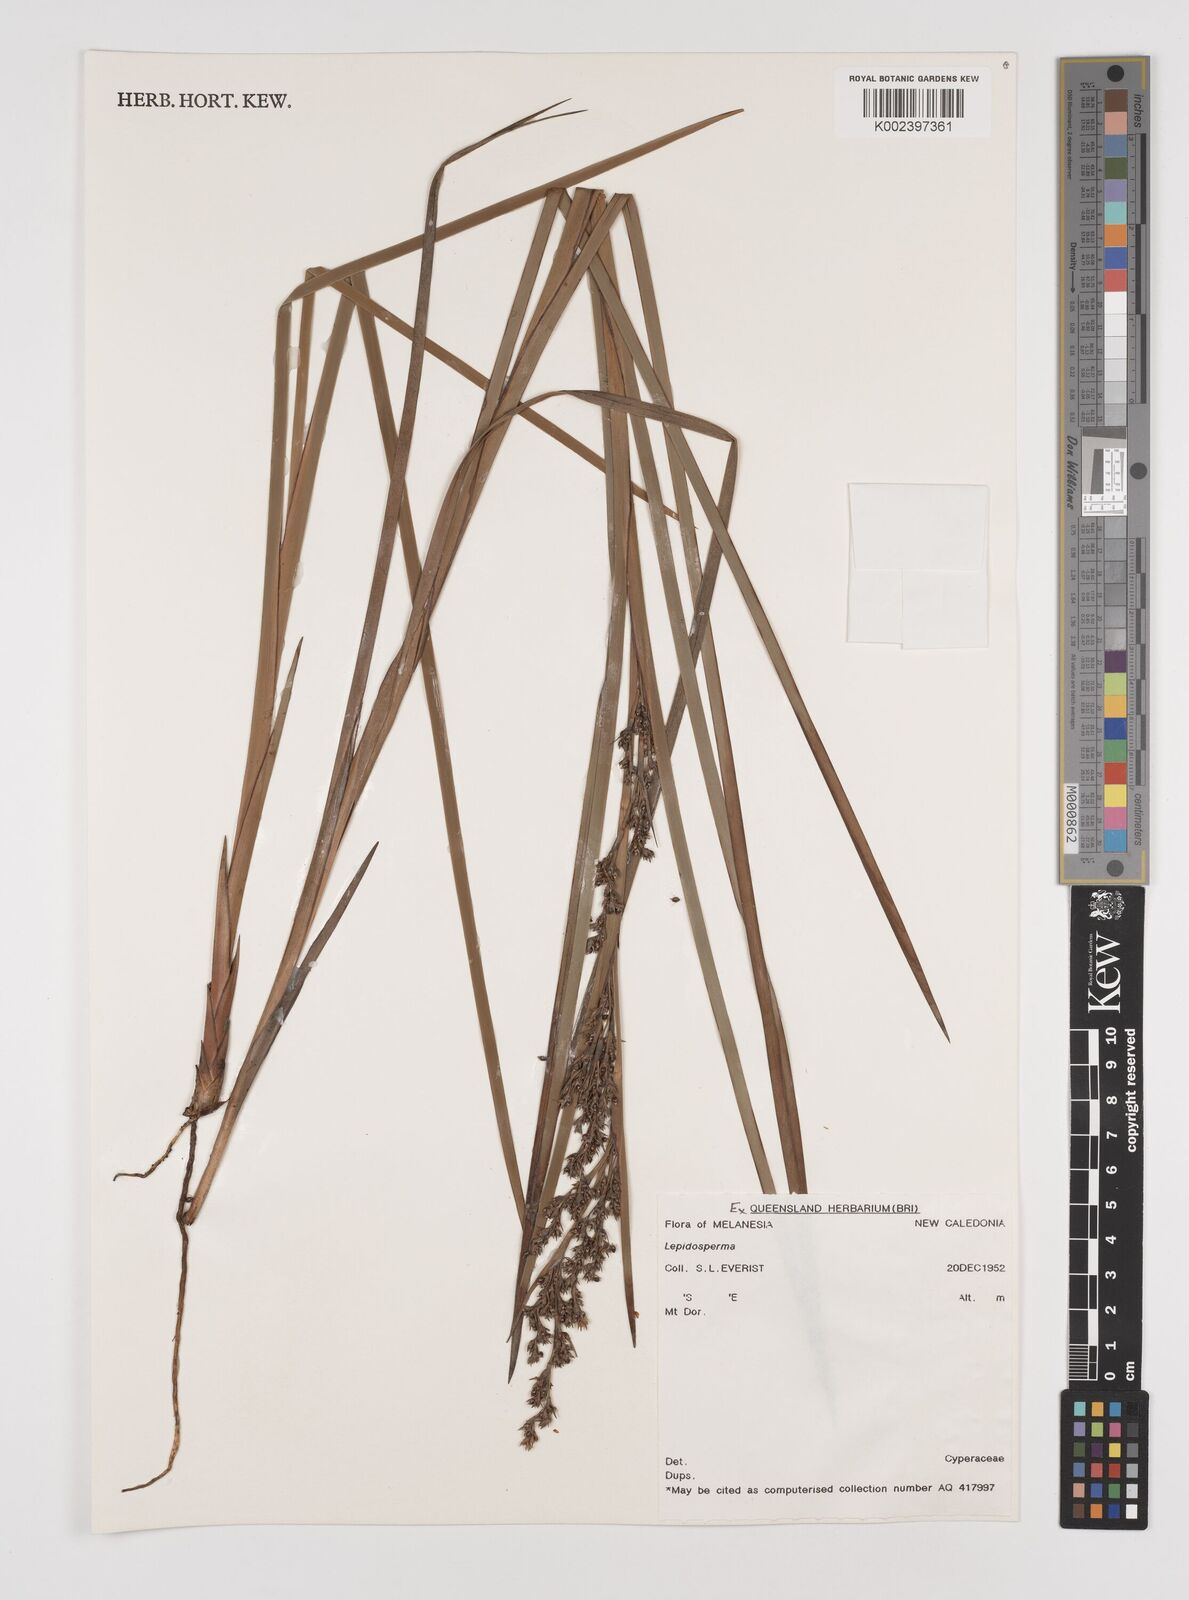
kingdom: Plantae
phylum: Tracheophyta
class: Liliopsida
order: Poales
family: Cyperaceae
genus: Lepidosperma
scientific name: Lepidosperma
